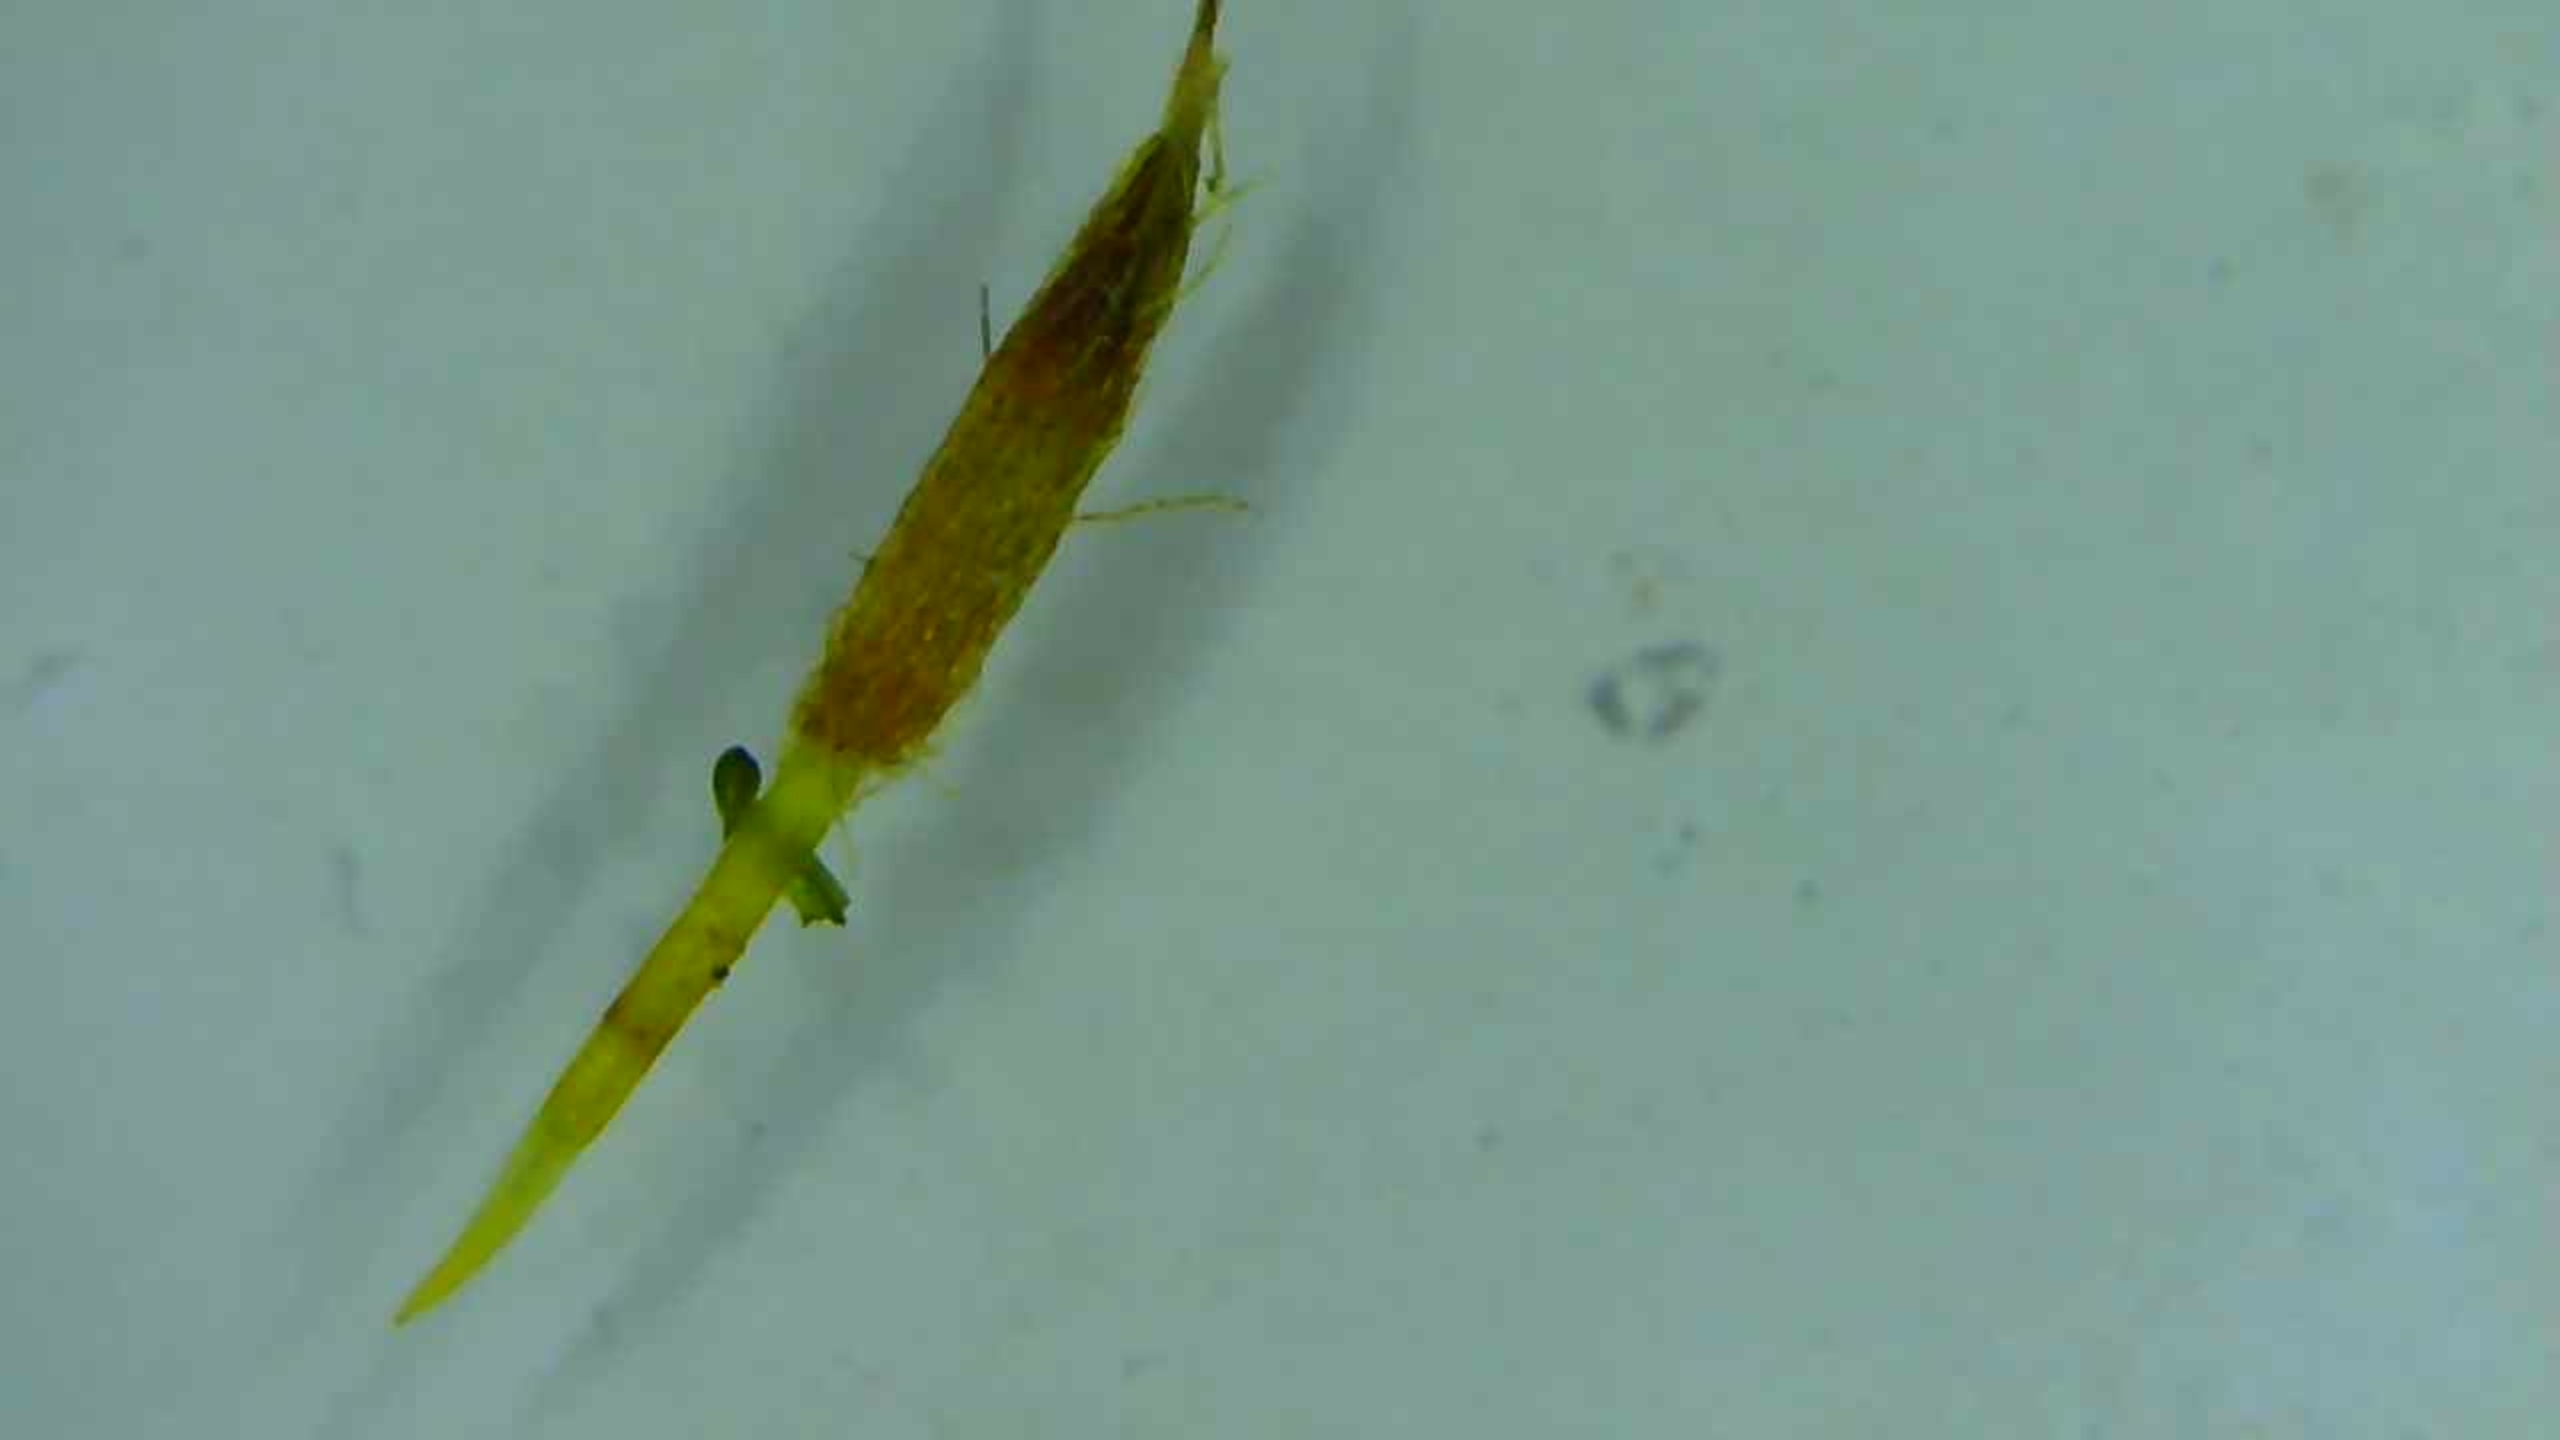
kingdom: Plantae
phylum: Bryophyta
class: Bryopsida
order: Orthotrichales
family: Orthotrichaceae
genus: Ulota
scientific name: Ulota
